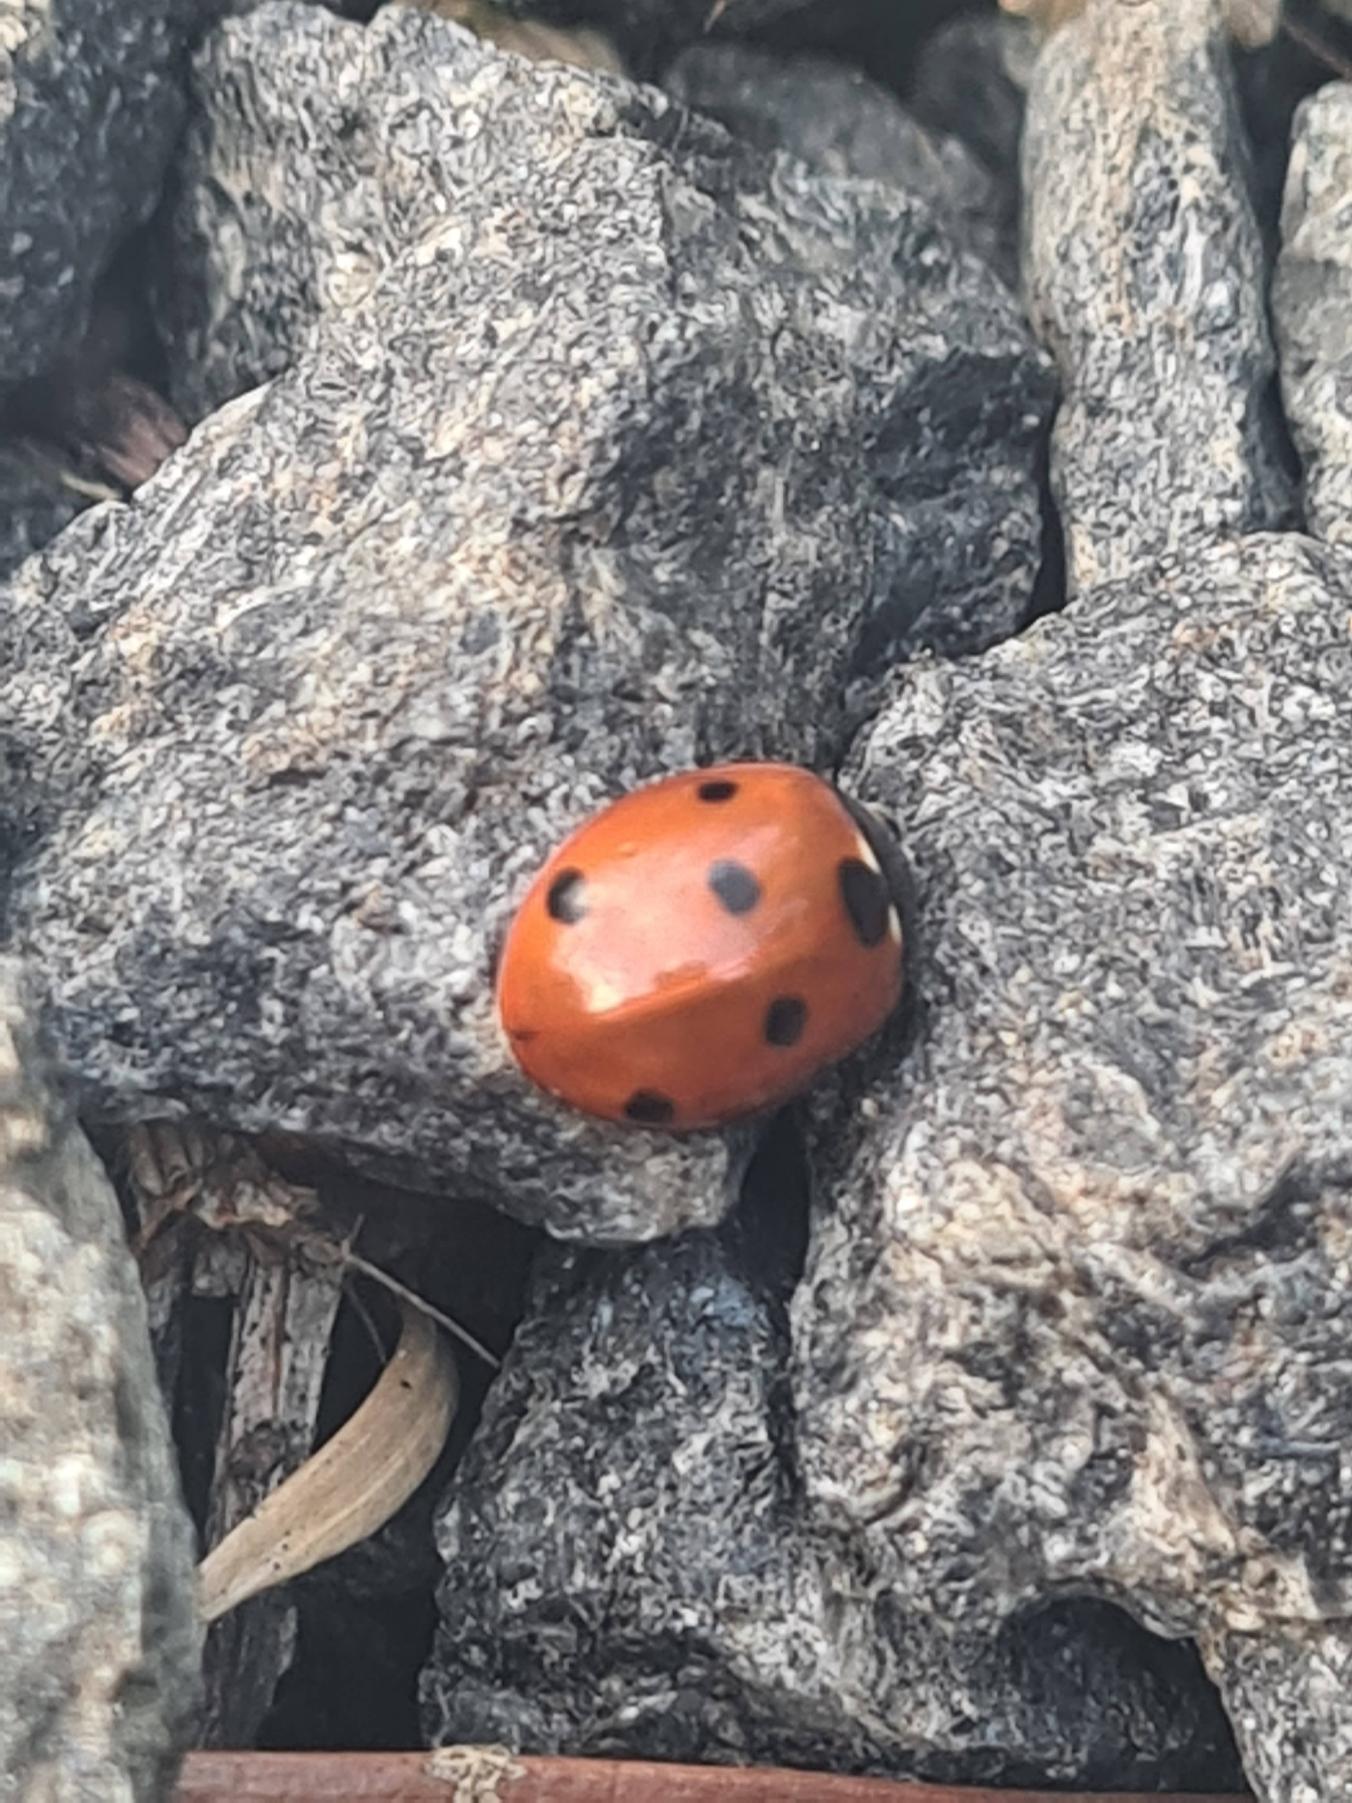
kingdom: Animalia
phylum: Arthropoda
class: Insecta
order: Coleoptera
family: Coccinellidae
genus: Coccinella
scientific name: Coccinella septempunctata
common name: Syvplettet mariehøne
